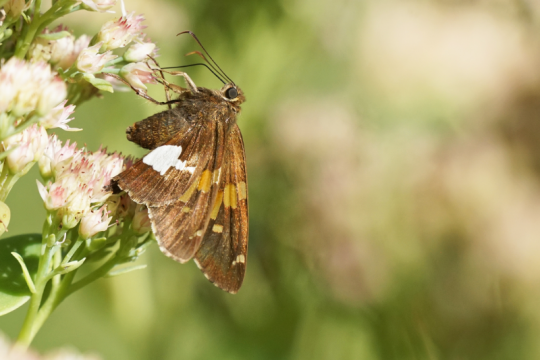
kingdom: Animalia
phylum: Arthropoda
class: Insecta
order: Lepidoptera
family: Hesperiidae
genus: Epargyreus
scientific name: Epargyreus clarus
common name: Silver-spotted Skipper
